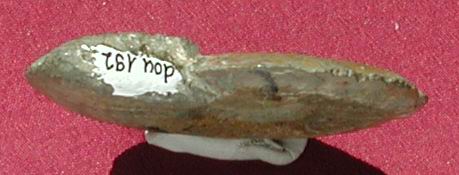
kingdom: Animalia
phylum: Mollusca
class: Cephalopoda
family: Hildoceratidae
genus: Pleydellia
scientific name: Pleydellia buckmani
